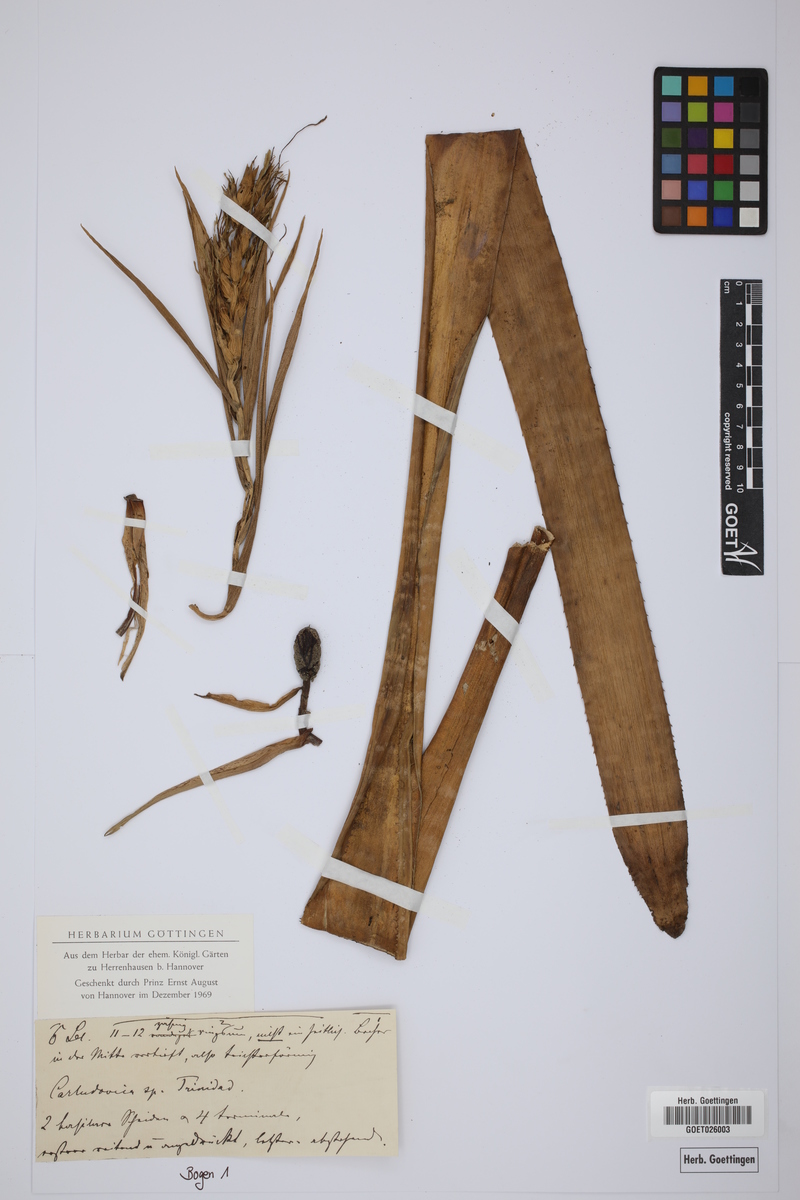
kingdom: Plantae
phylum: Tracheophyta
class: Liliopsida
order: Pandanales
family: Cyclanthaceae
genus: Carludovica
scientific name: Carludovica
